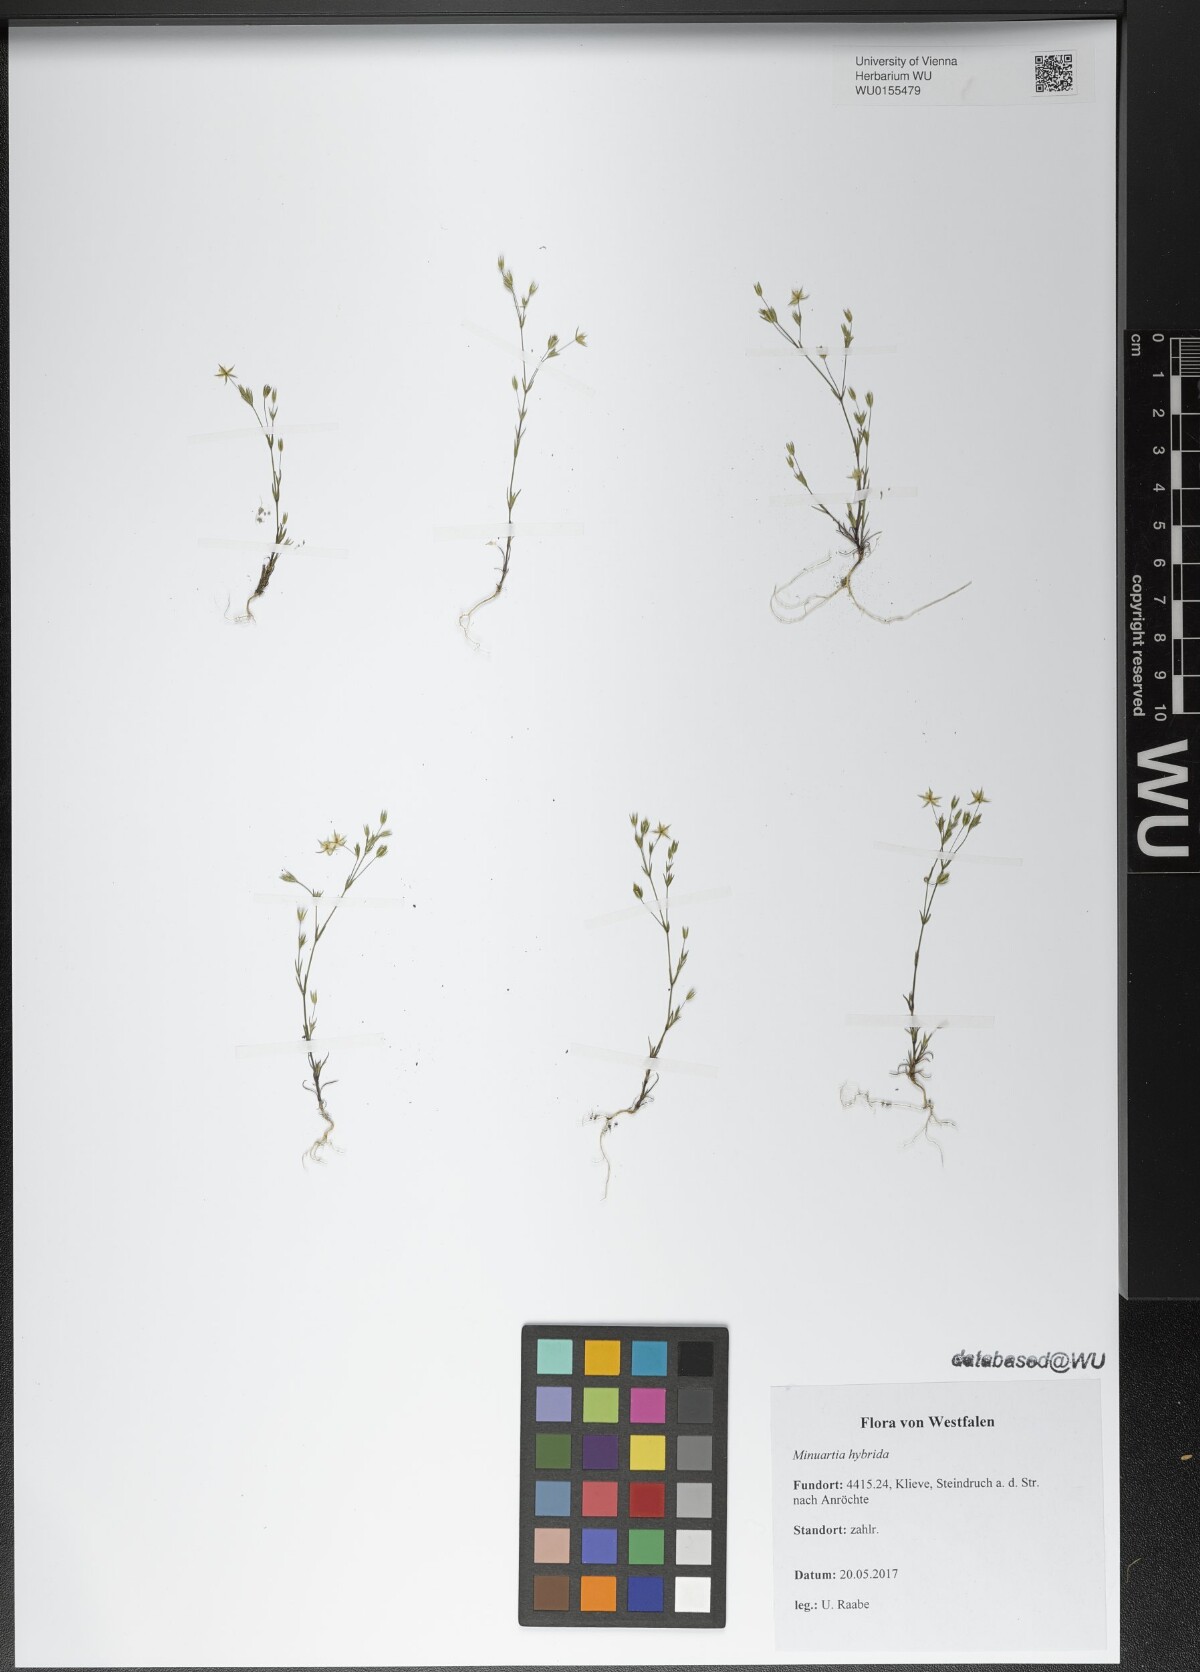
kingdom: Plantae
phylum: Tracheophyta
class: Magnoliopsida
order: Caryophyllales
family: Caryophyllaceae
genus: Sabulina
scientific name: Sabulina tenuifolia
